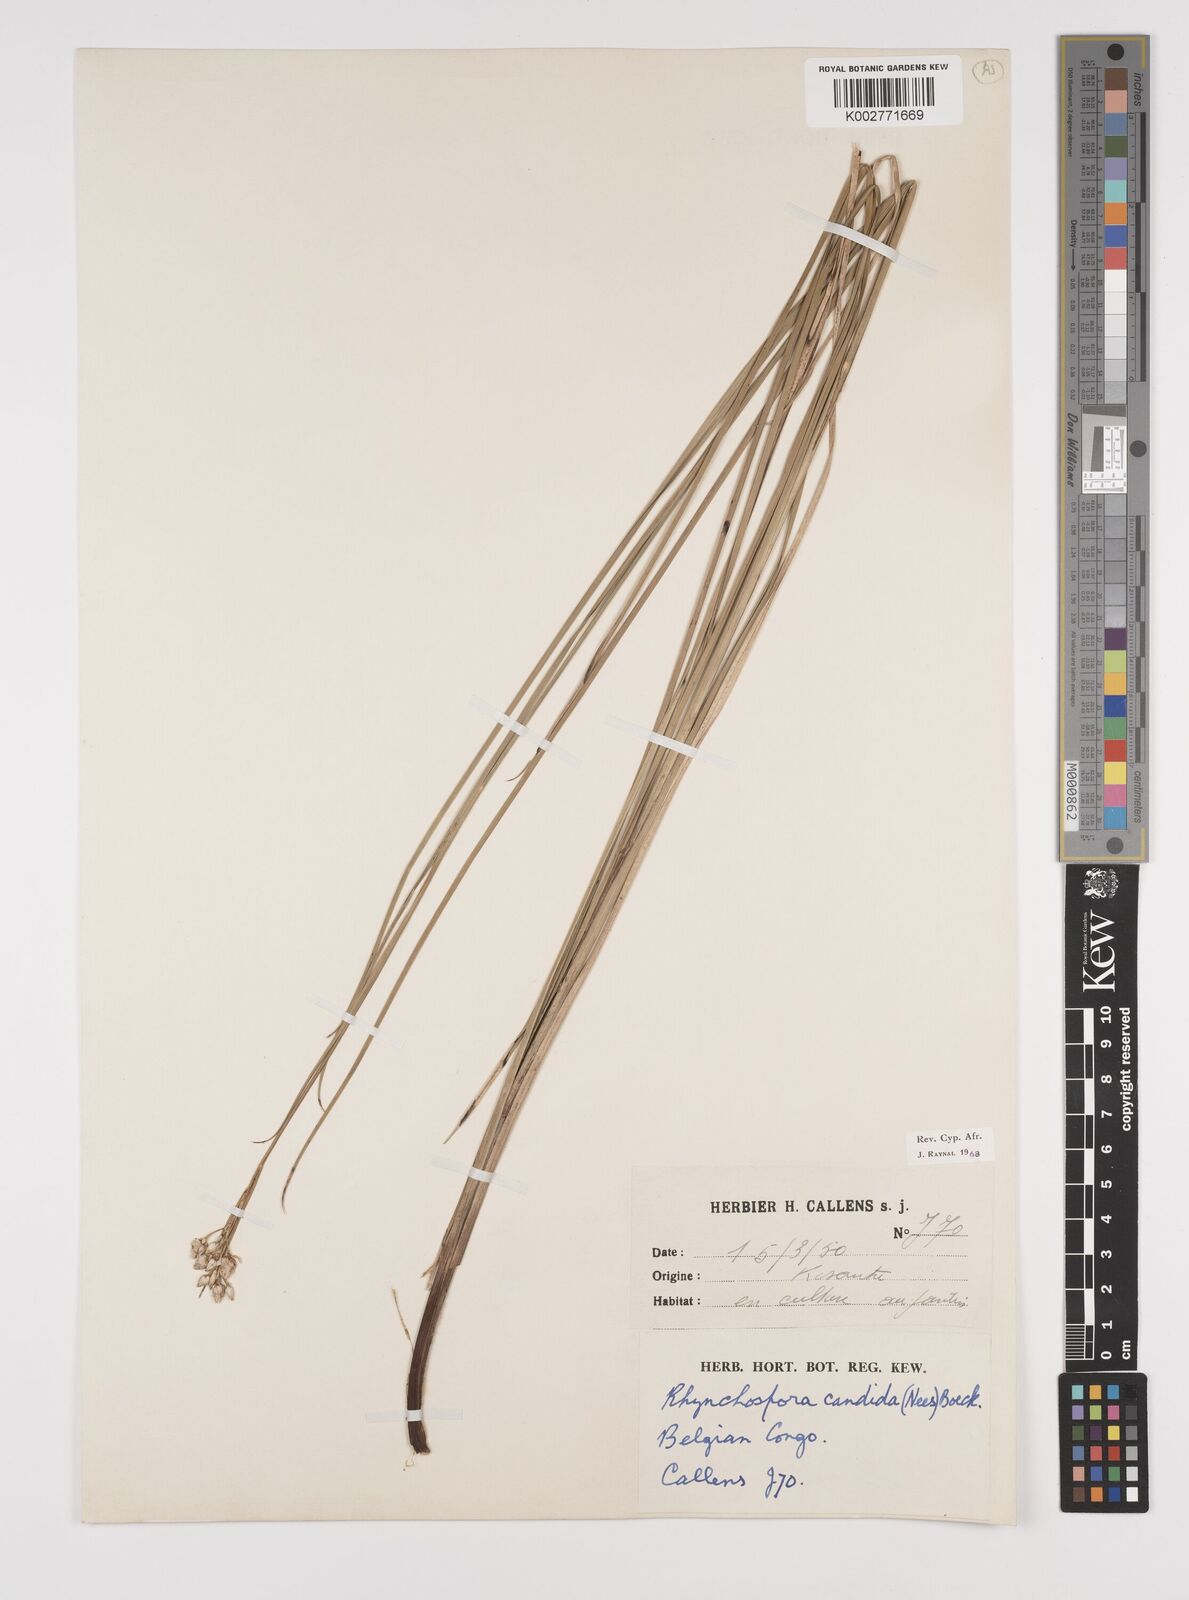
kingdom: Plantae
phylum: Tracheophyta
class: Liliopsida
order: Poales
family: Cyperaceae
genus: Rhynchospora
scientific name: Rhynchospora candida
